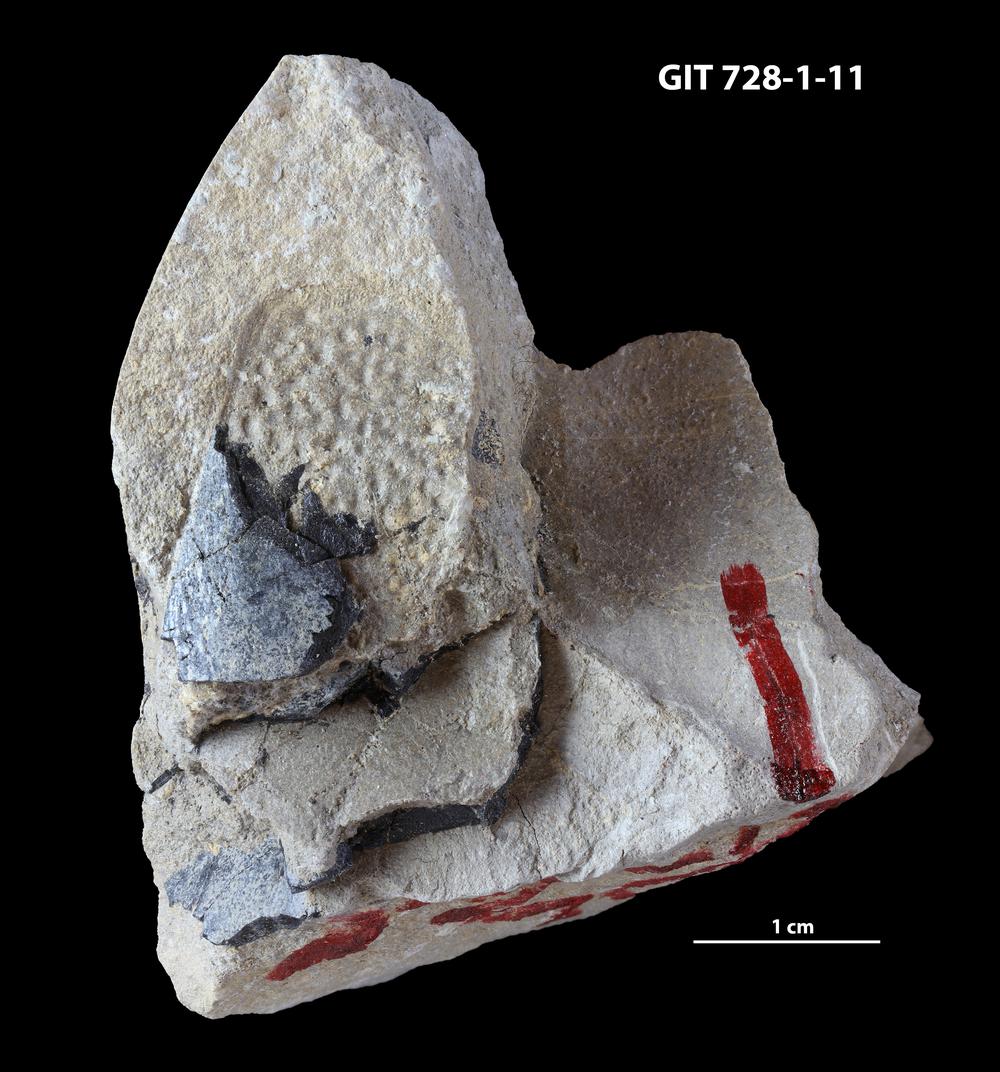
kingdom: Animalia
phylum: Chordata
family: Coccosteidae
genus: Watsonosteus
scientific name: Watsonosteus
